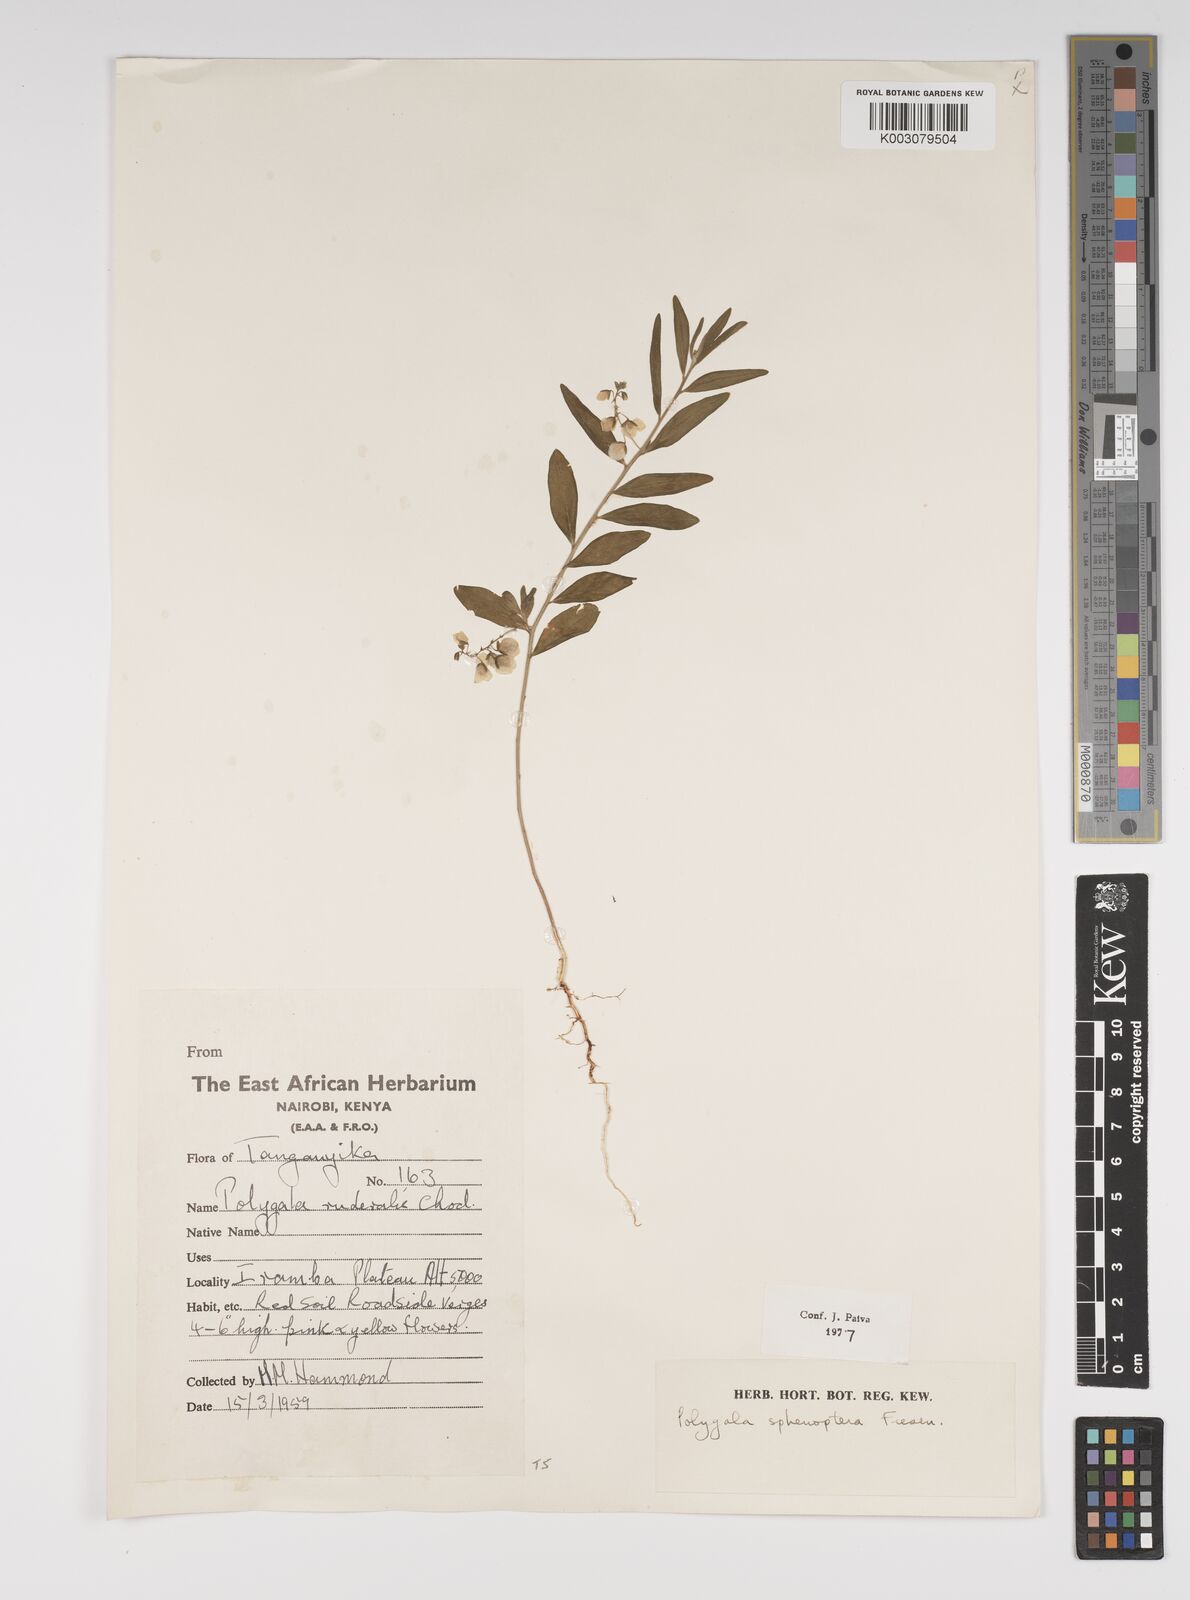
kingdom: Plantae
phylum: Tracheophyta
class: Magnoliopsida
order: Fabales
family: Polygalaceae
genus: Polygala
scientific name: Polygala sphenoptera
